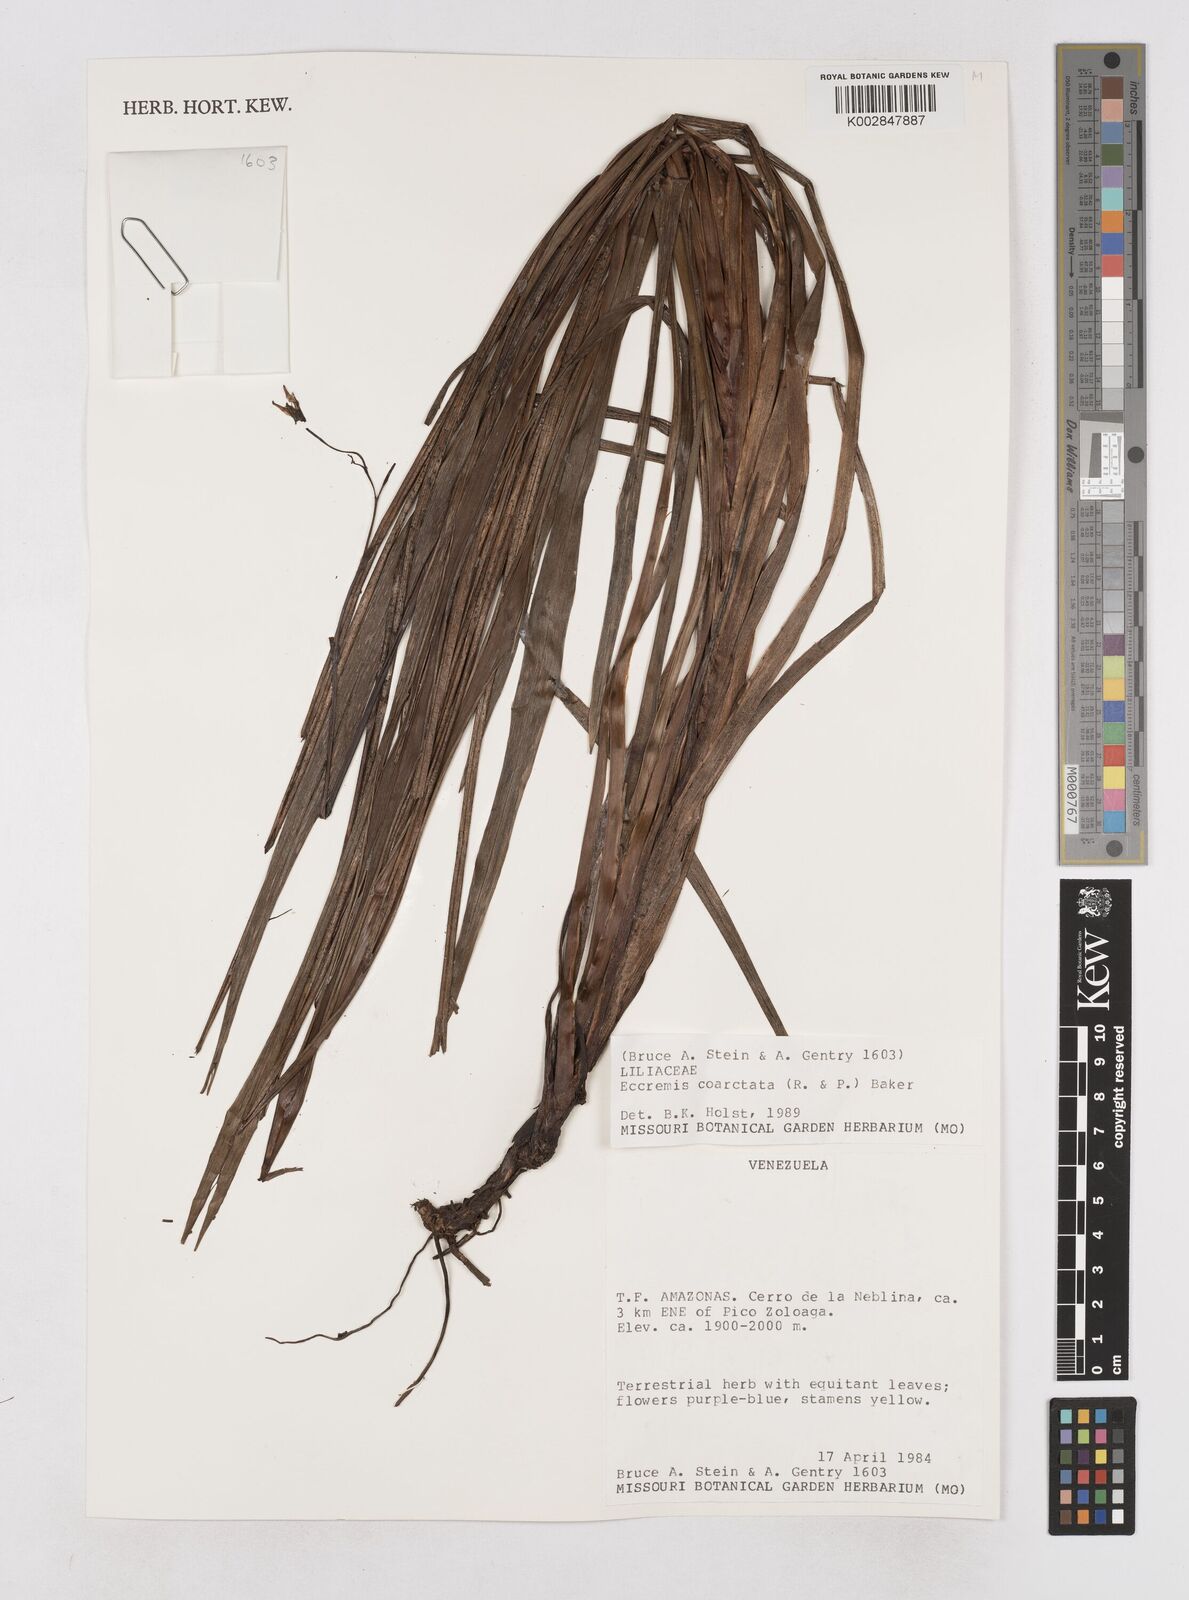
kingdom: Plantae
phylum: Tracheophyta
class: Liliopsida
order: Asparagales
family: Asphodelaceae
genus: Excremis
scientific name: Excremis coarctata
